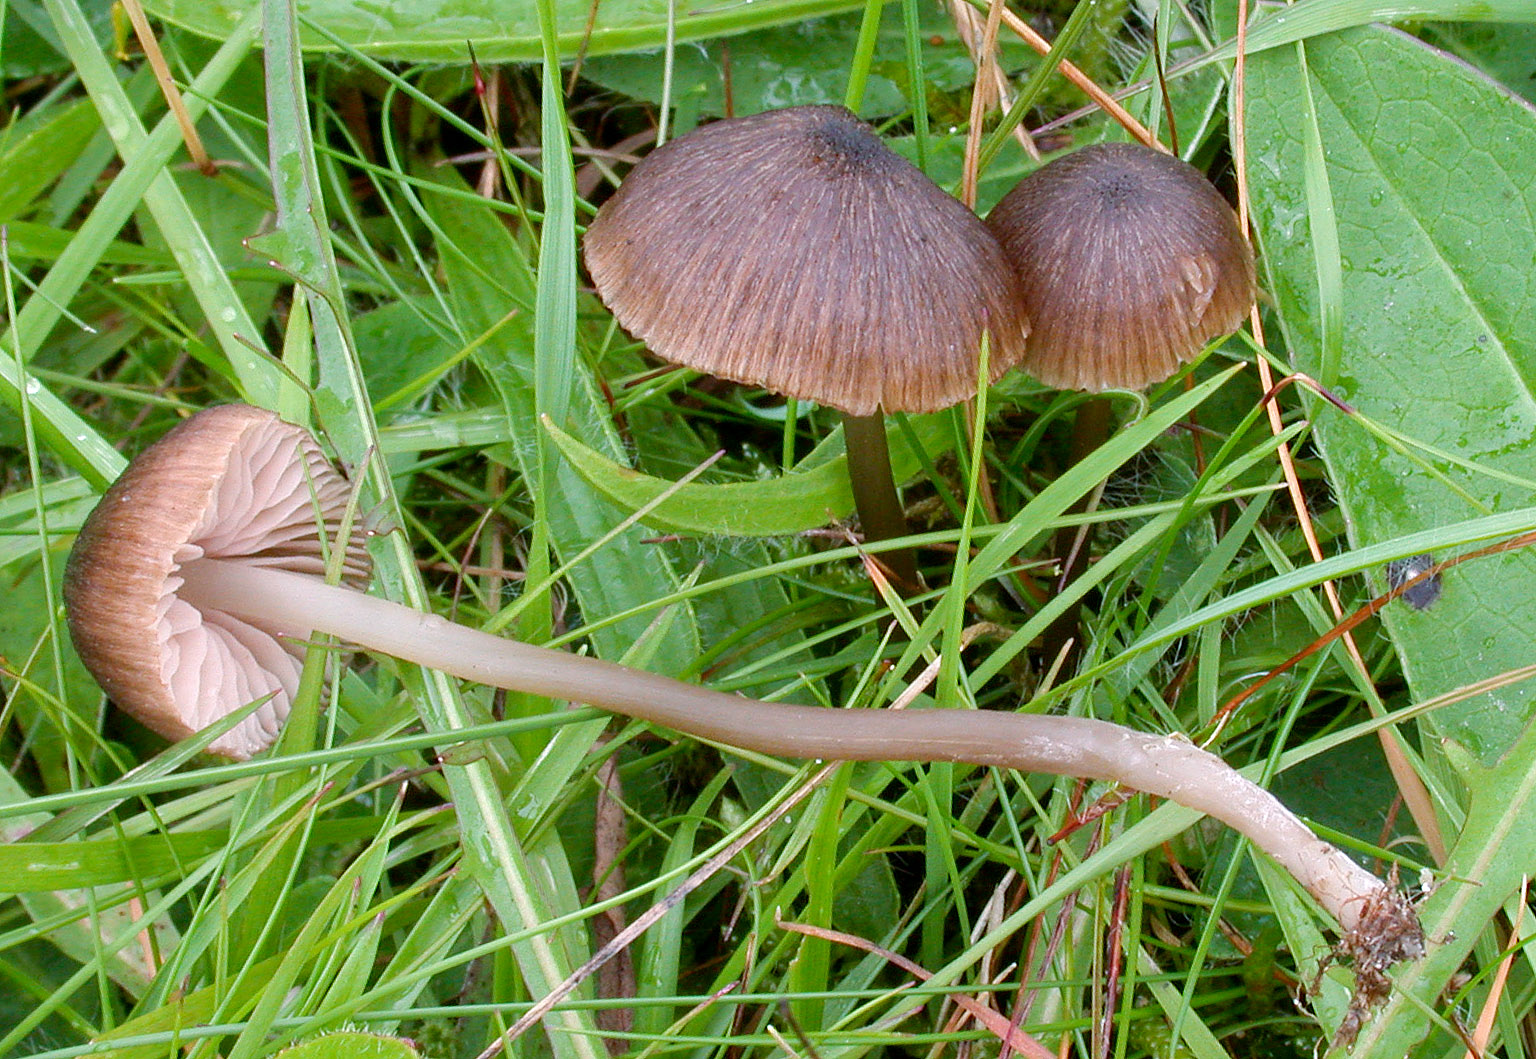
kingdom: Fungi
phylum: Basidiomycota
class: Agaricomycetes
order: Agaricales
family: Entolomataceae
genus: Entoloma
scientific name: Entoloma cocles
